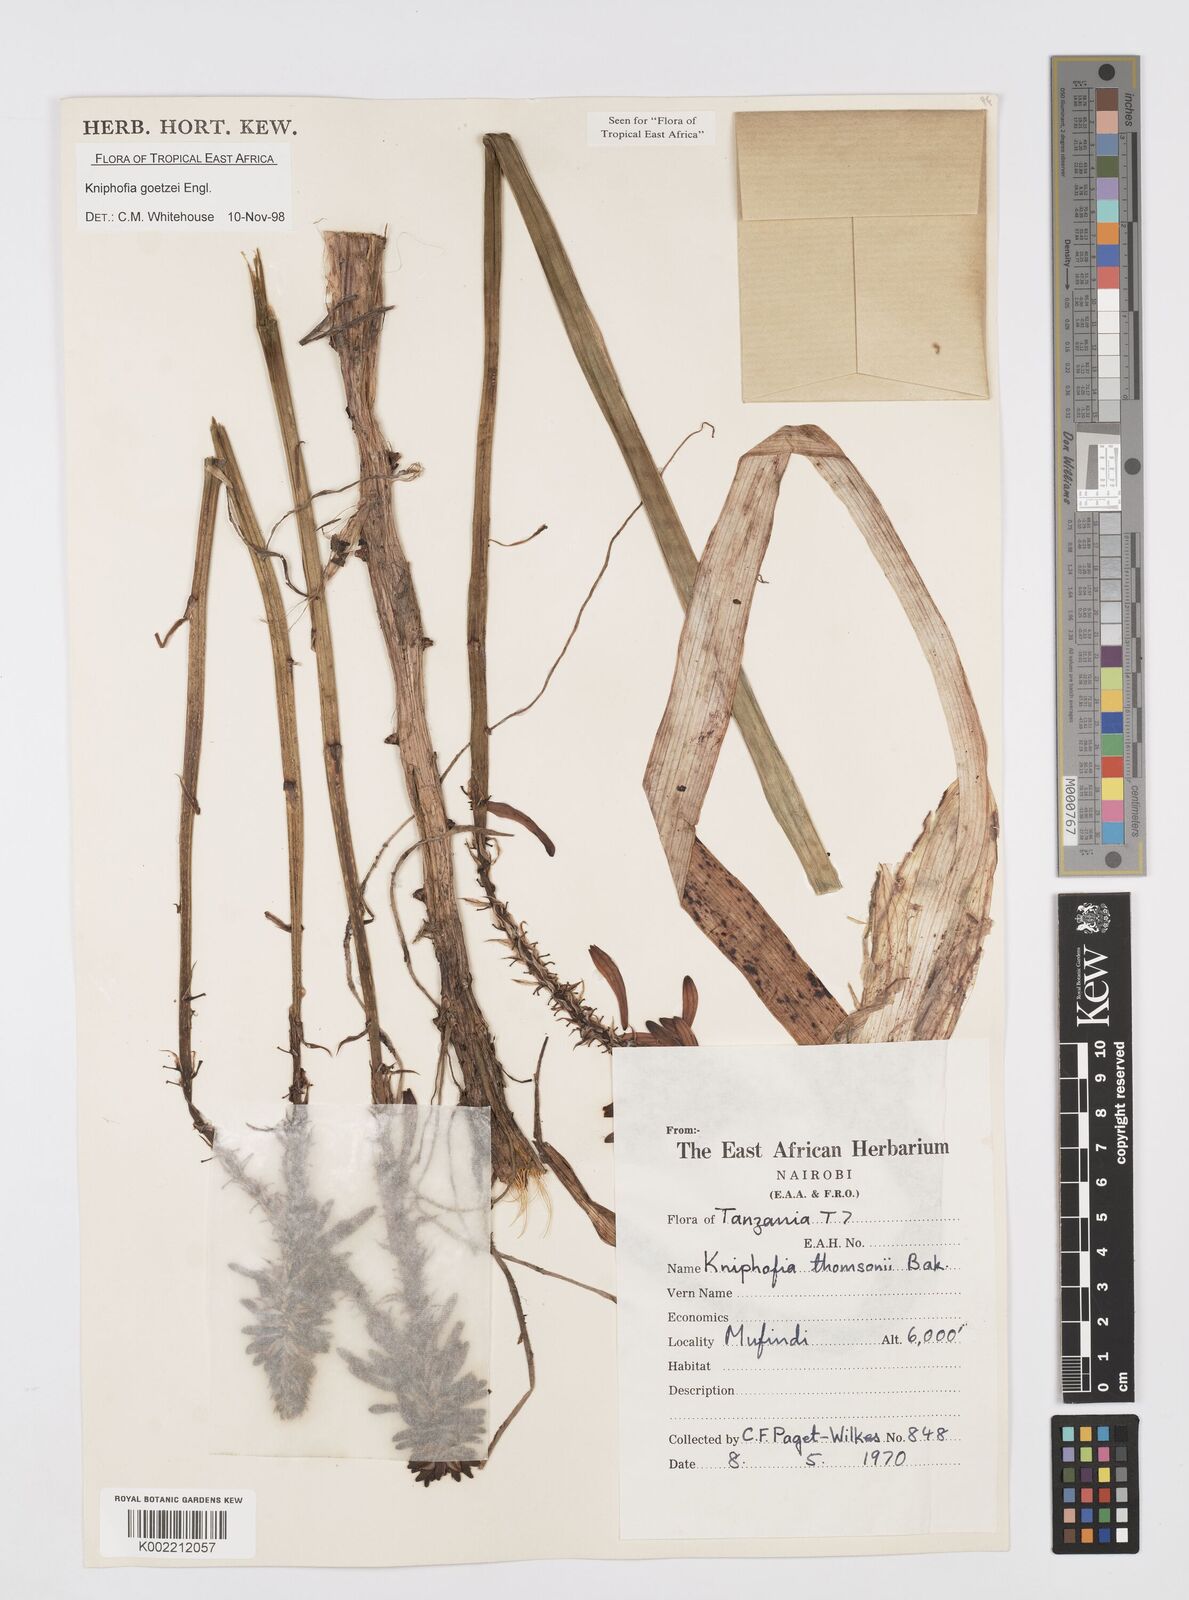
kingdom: Plantae
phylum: Tracheophyta
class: Liliopsida
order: Asparagales
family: Asphodelaceae
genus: Kniphofia
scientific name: Kniphofia goetzei
